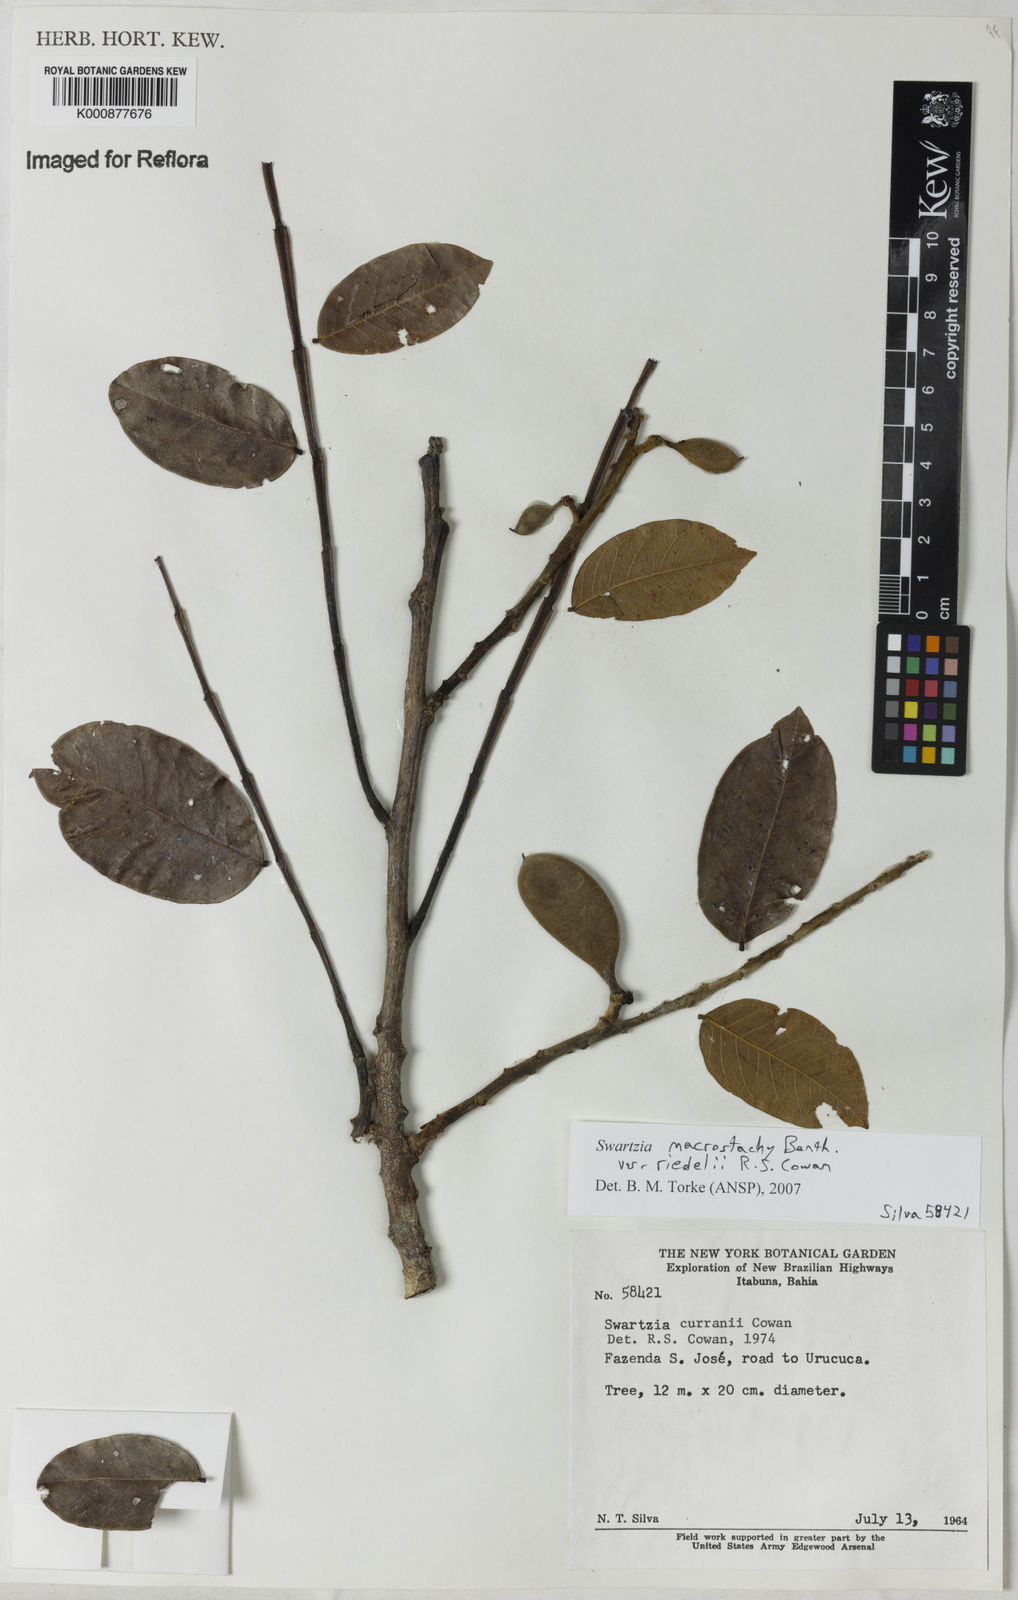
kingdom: Plantae
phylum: Tracheophyta
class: Magnoliopsida
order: Fabales
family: Fabaceae
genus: Swartzia
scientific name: Swartzia macrostachya
